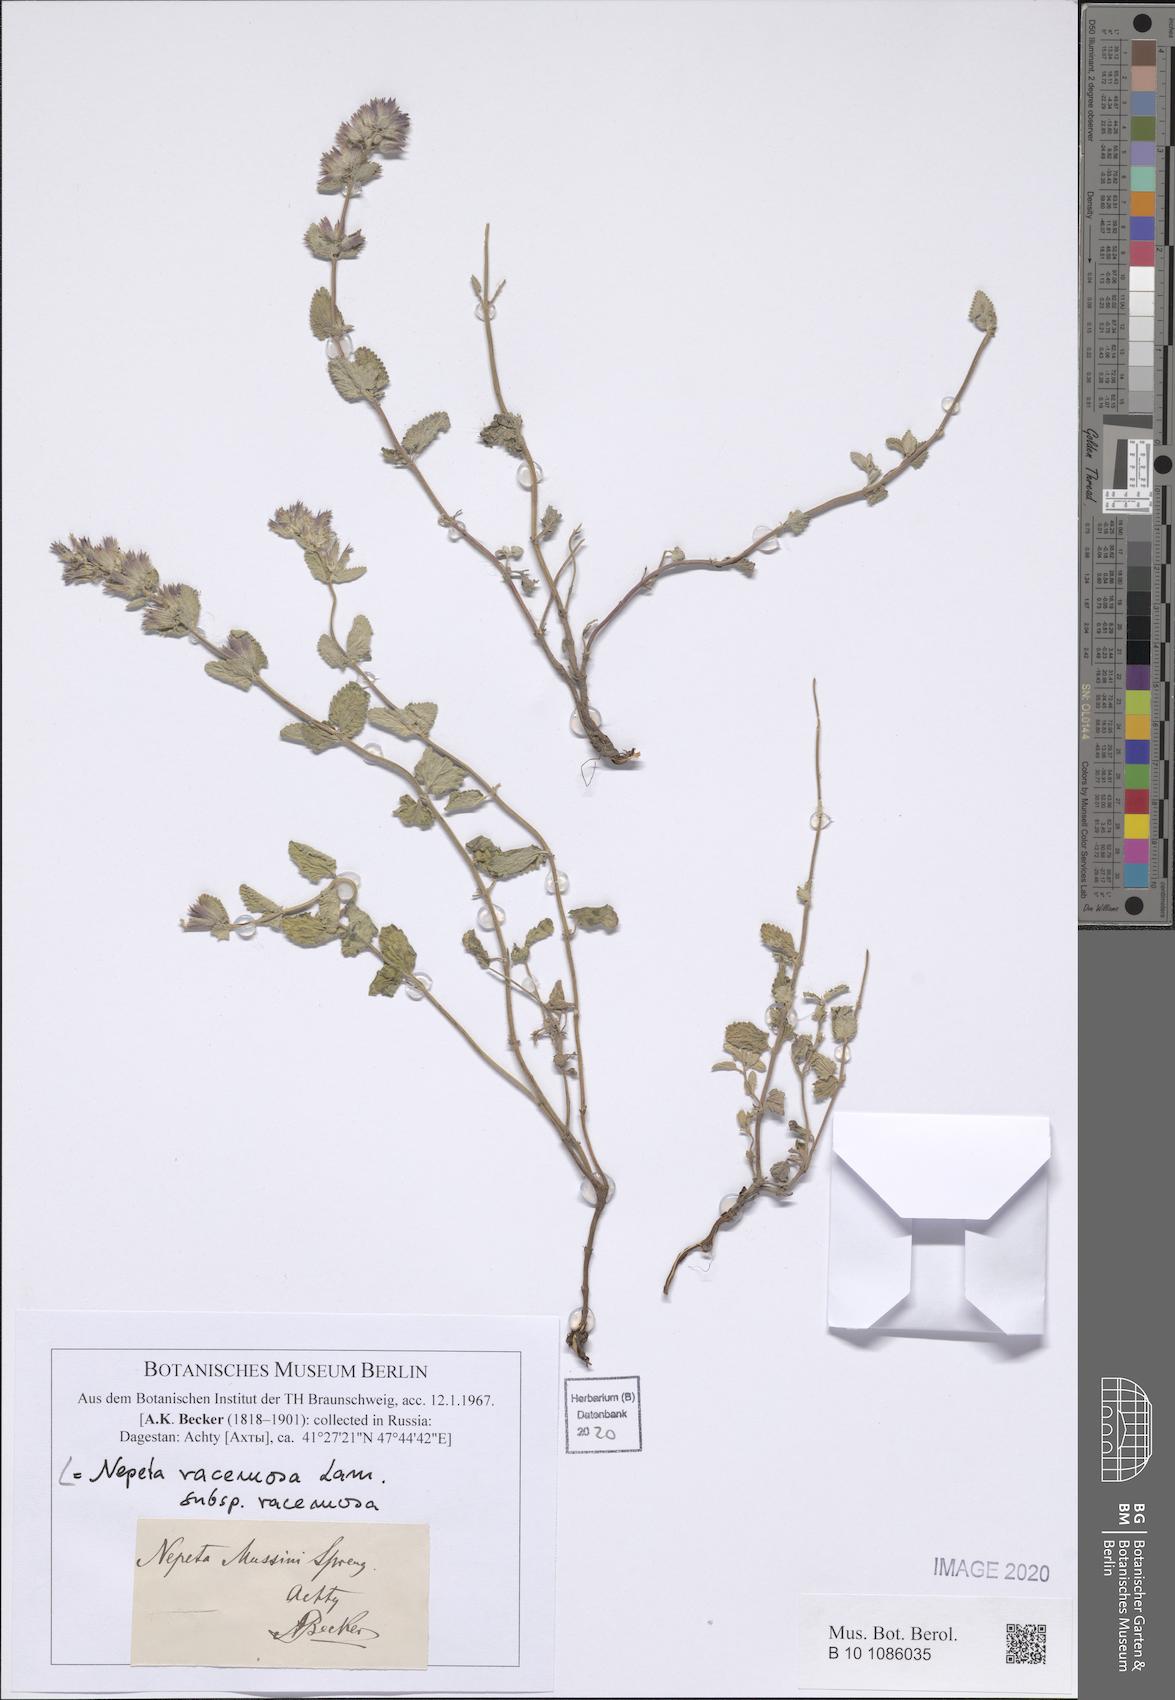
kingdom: Plantae
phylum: Tracheophyta
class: Magnoliopsida
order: Lamiales
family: Lamiaceae
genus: Nepeta
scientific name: Nepeta racemosa
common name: Raceme catnip
